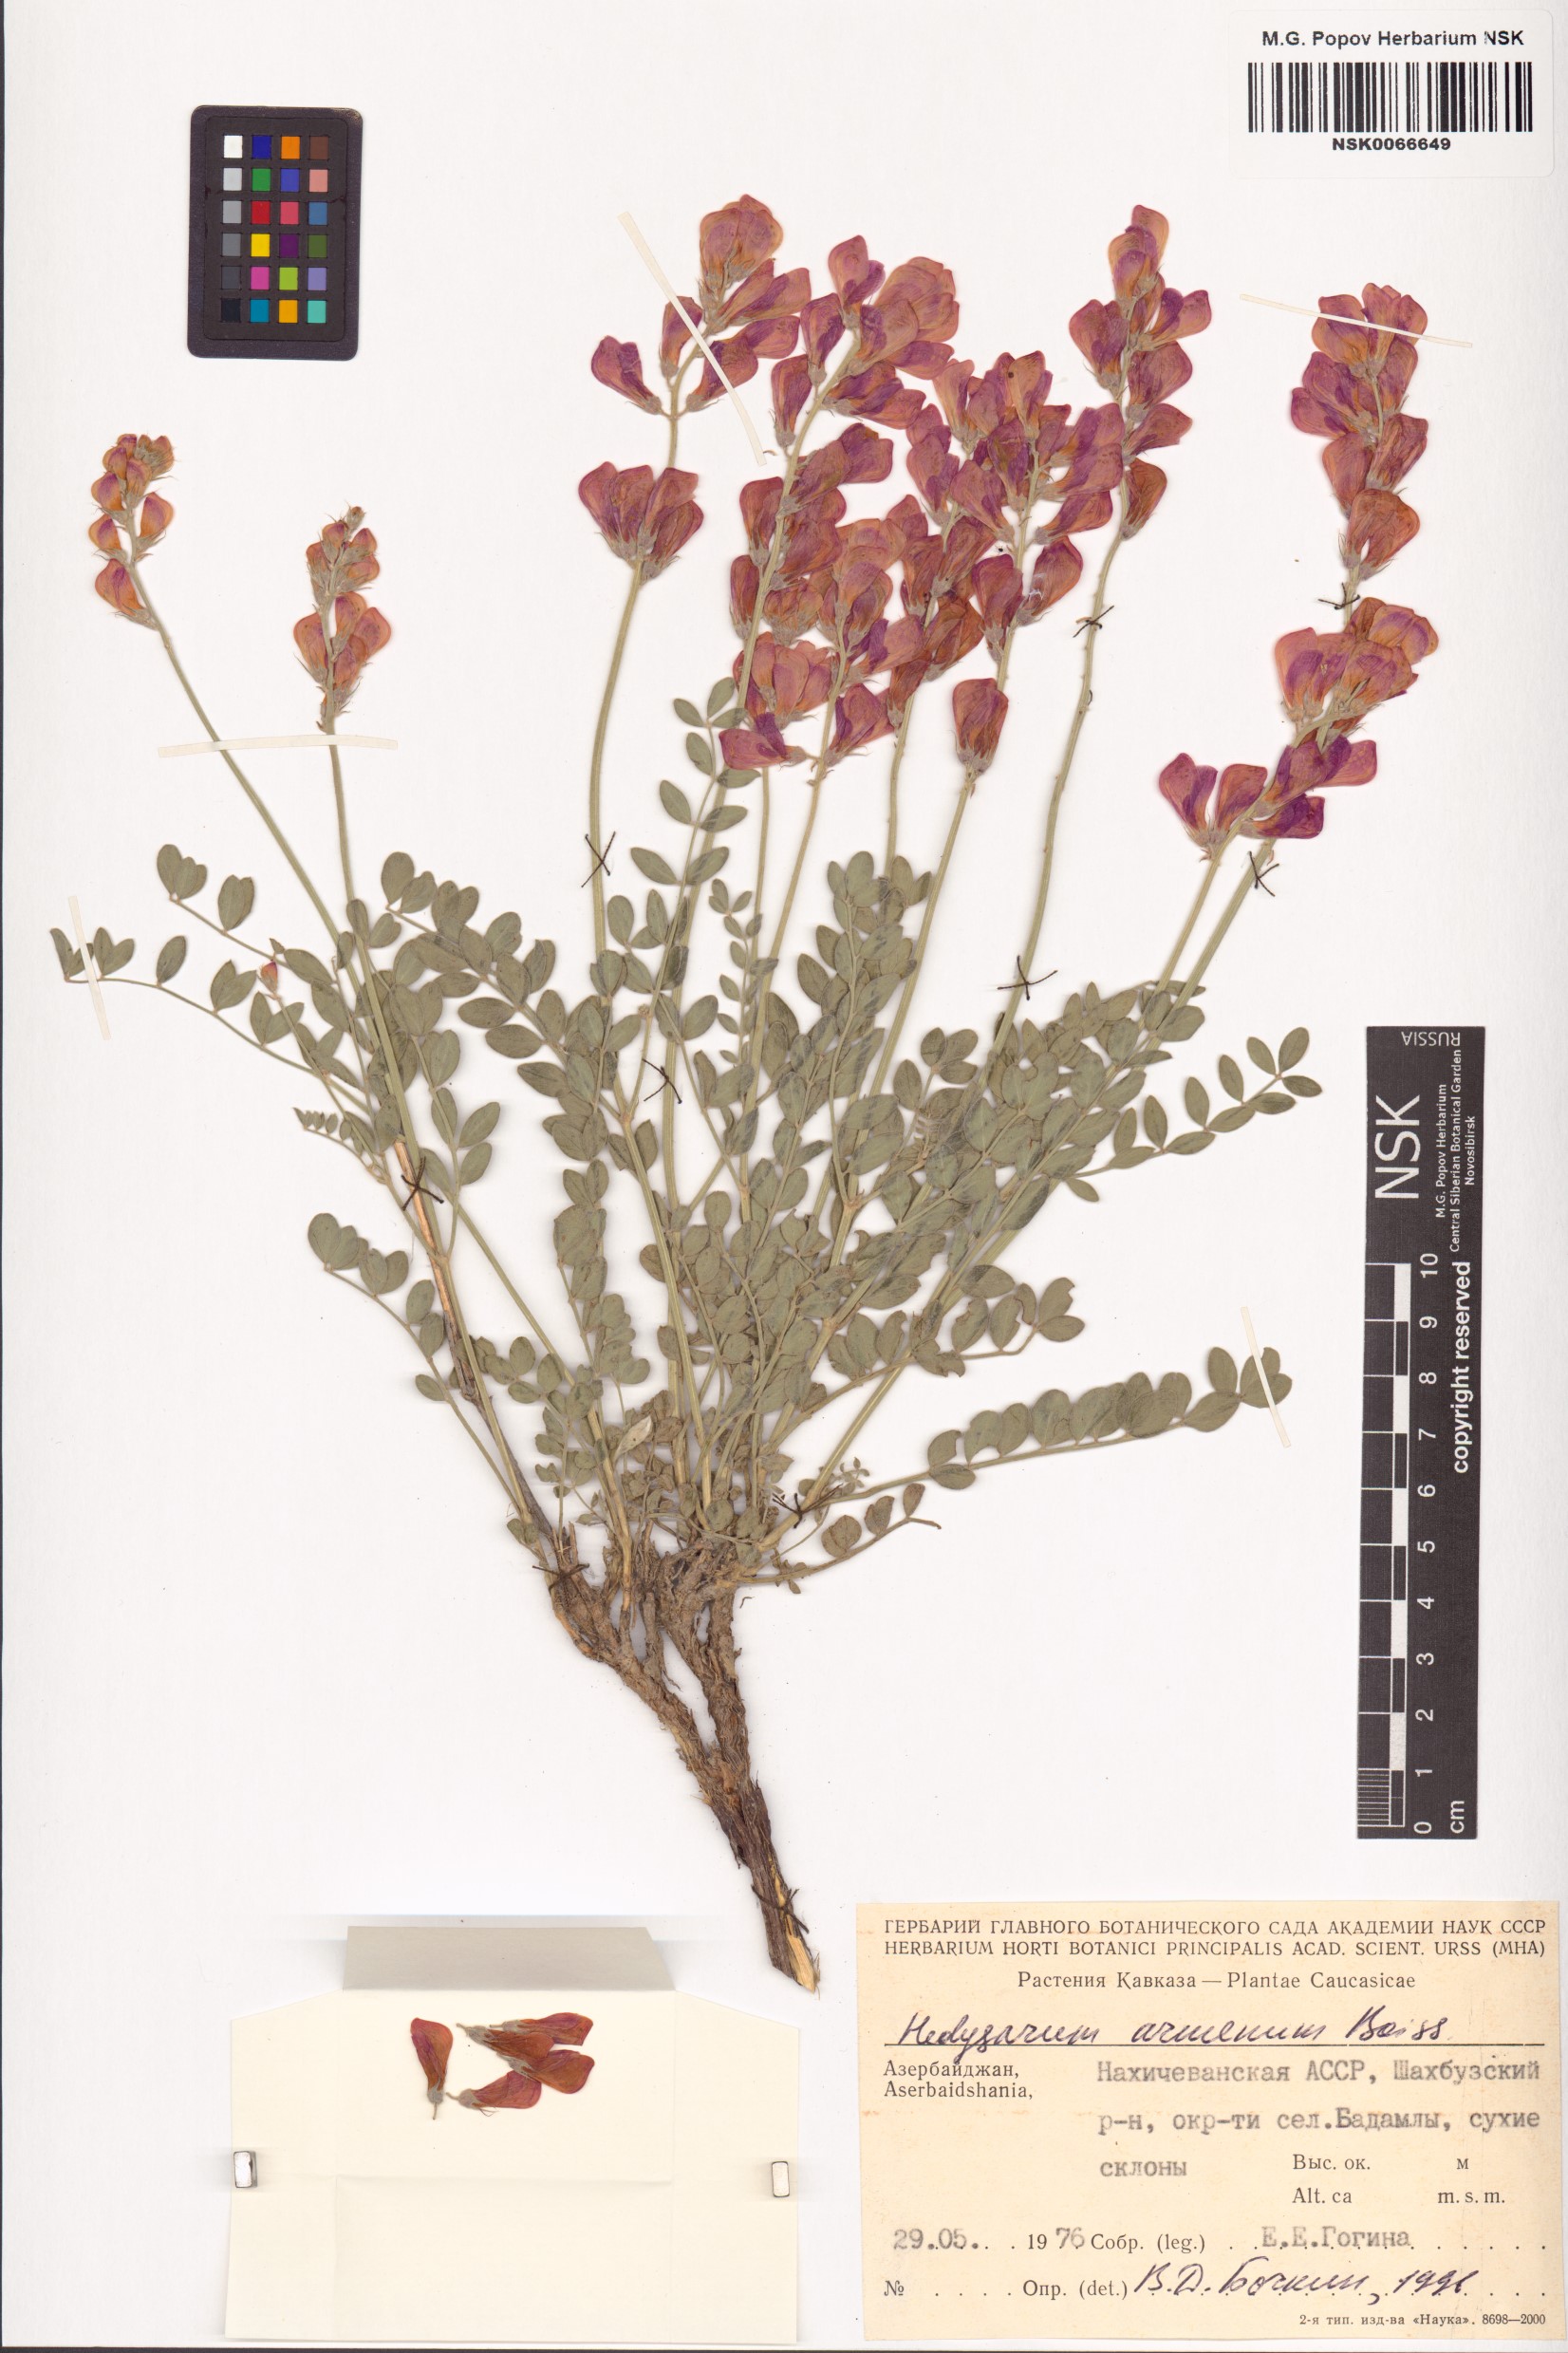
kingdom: Plantae
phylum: Tracheophyta
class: Magnoliopsida
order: Fabales
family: Fabaceae
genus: Hedysarum
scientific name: Hedysarum armenum
